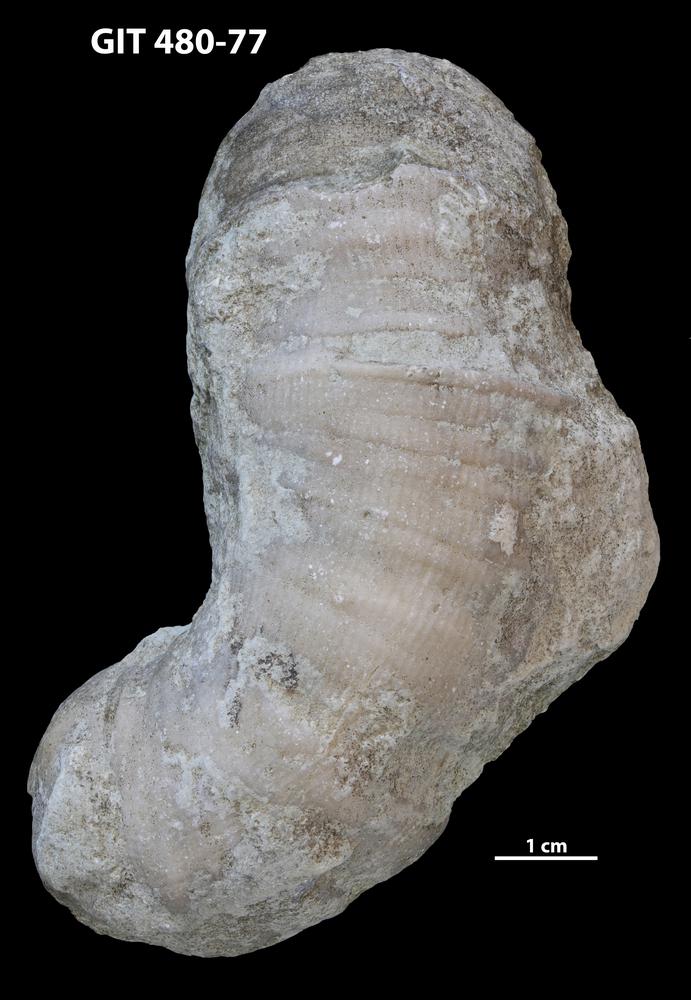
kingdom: Animalia
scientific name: Animalia
